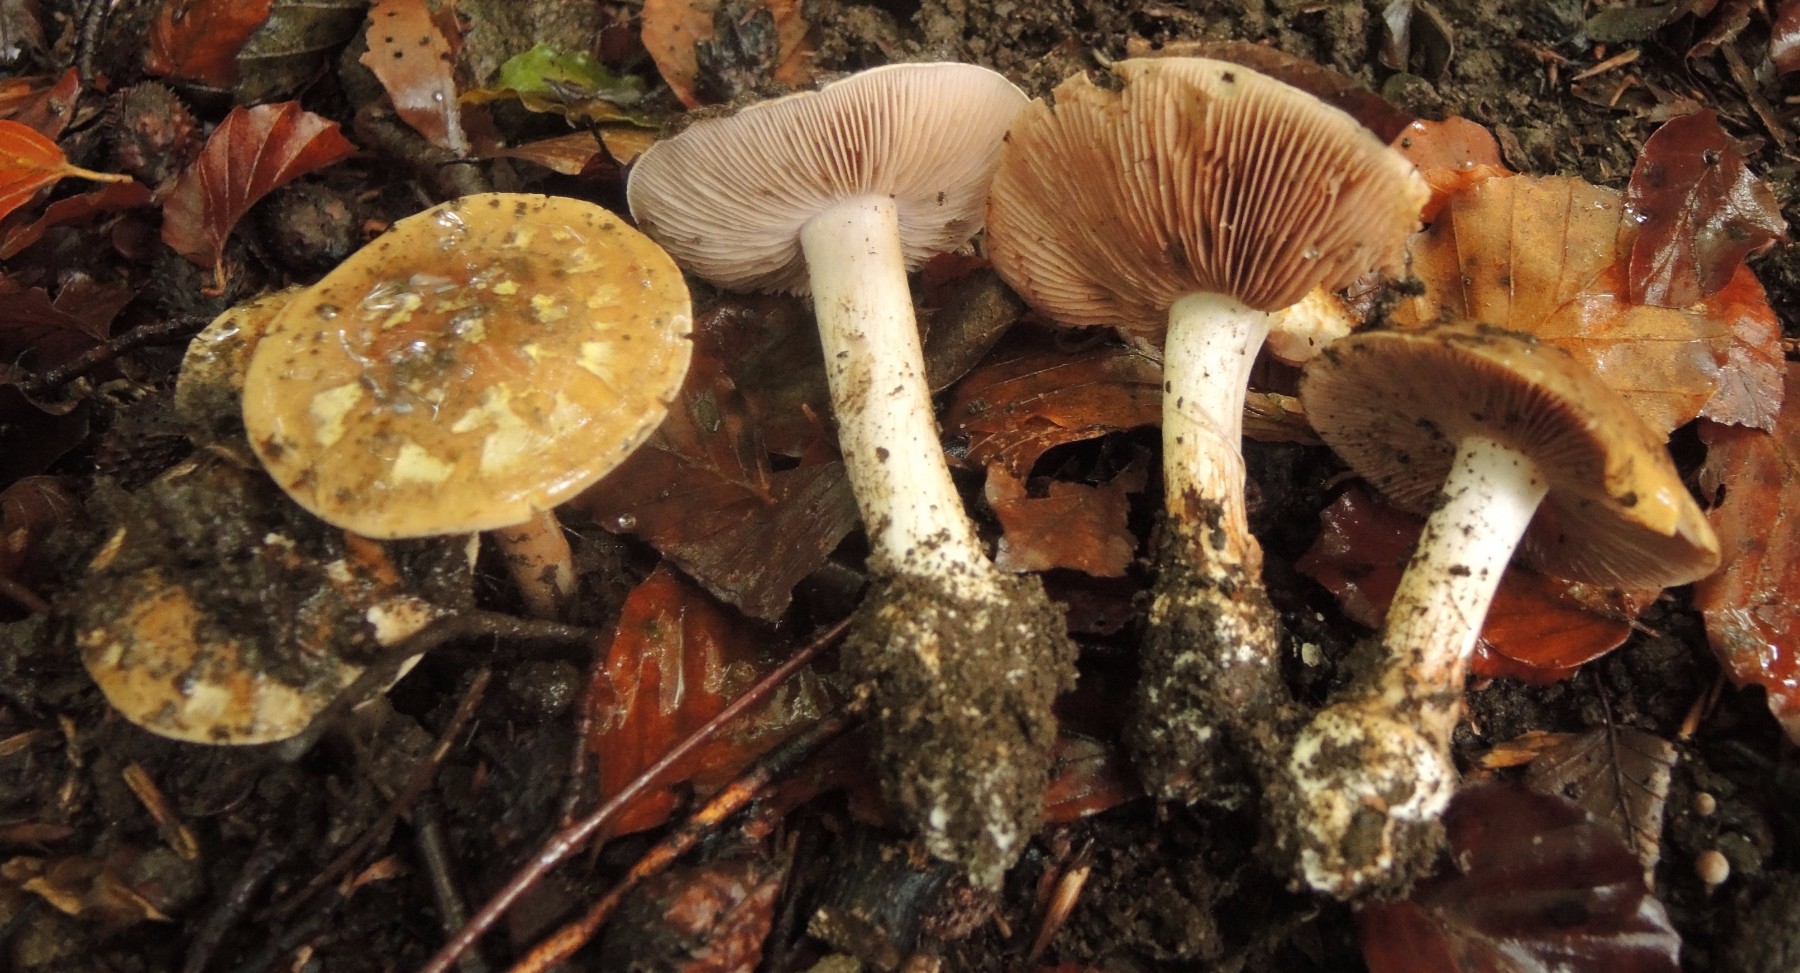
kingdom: Fungi
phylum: Basidiomycota
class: Agaricomycetes
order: Agaricales
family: Cortinariaceae
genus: Calonarius
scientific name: Calonarius aureocalceolatus
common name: spidsknoldet Slørhat
